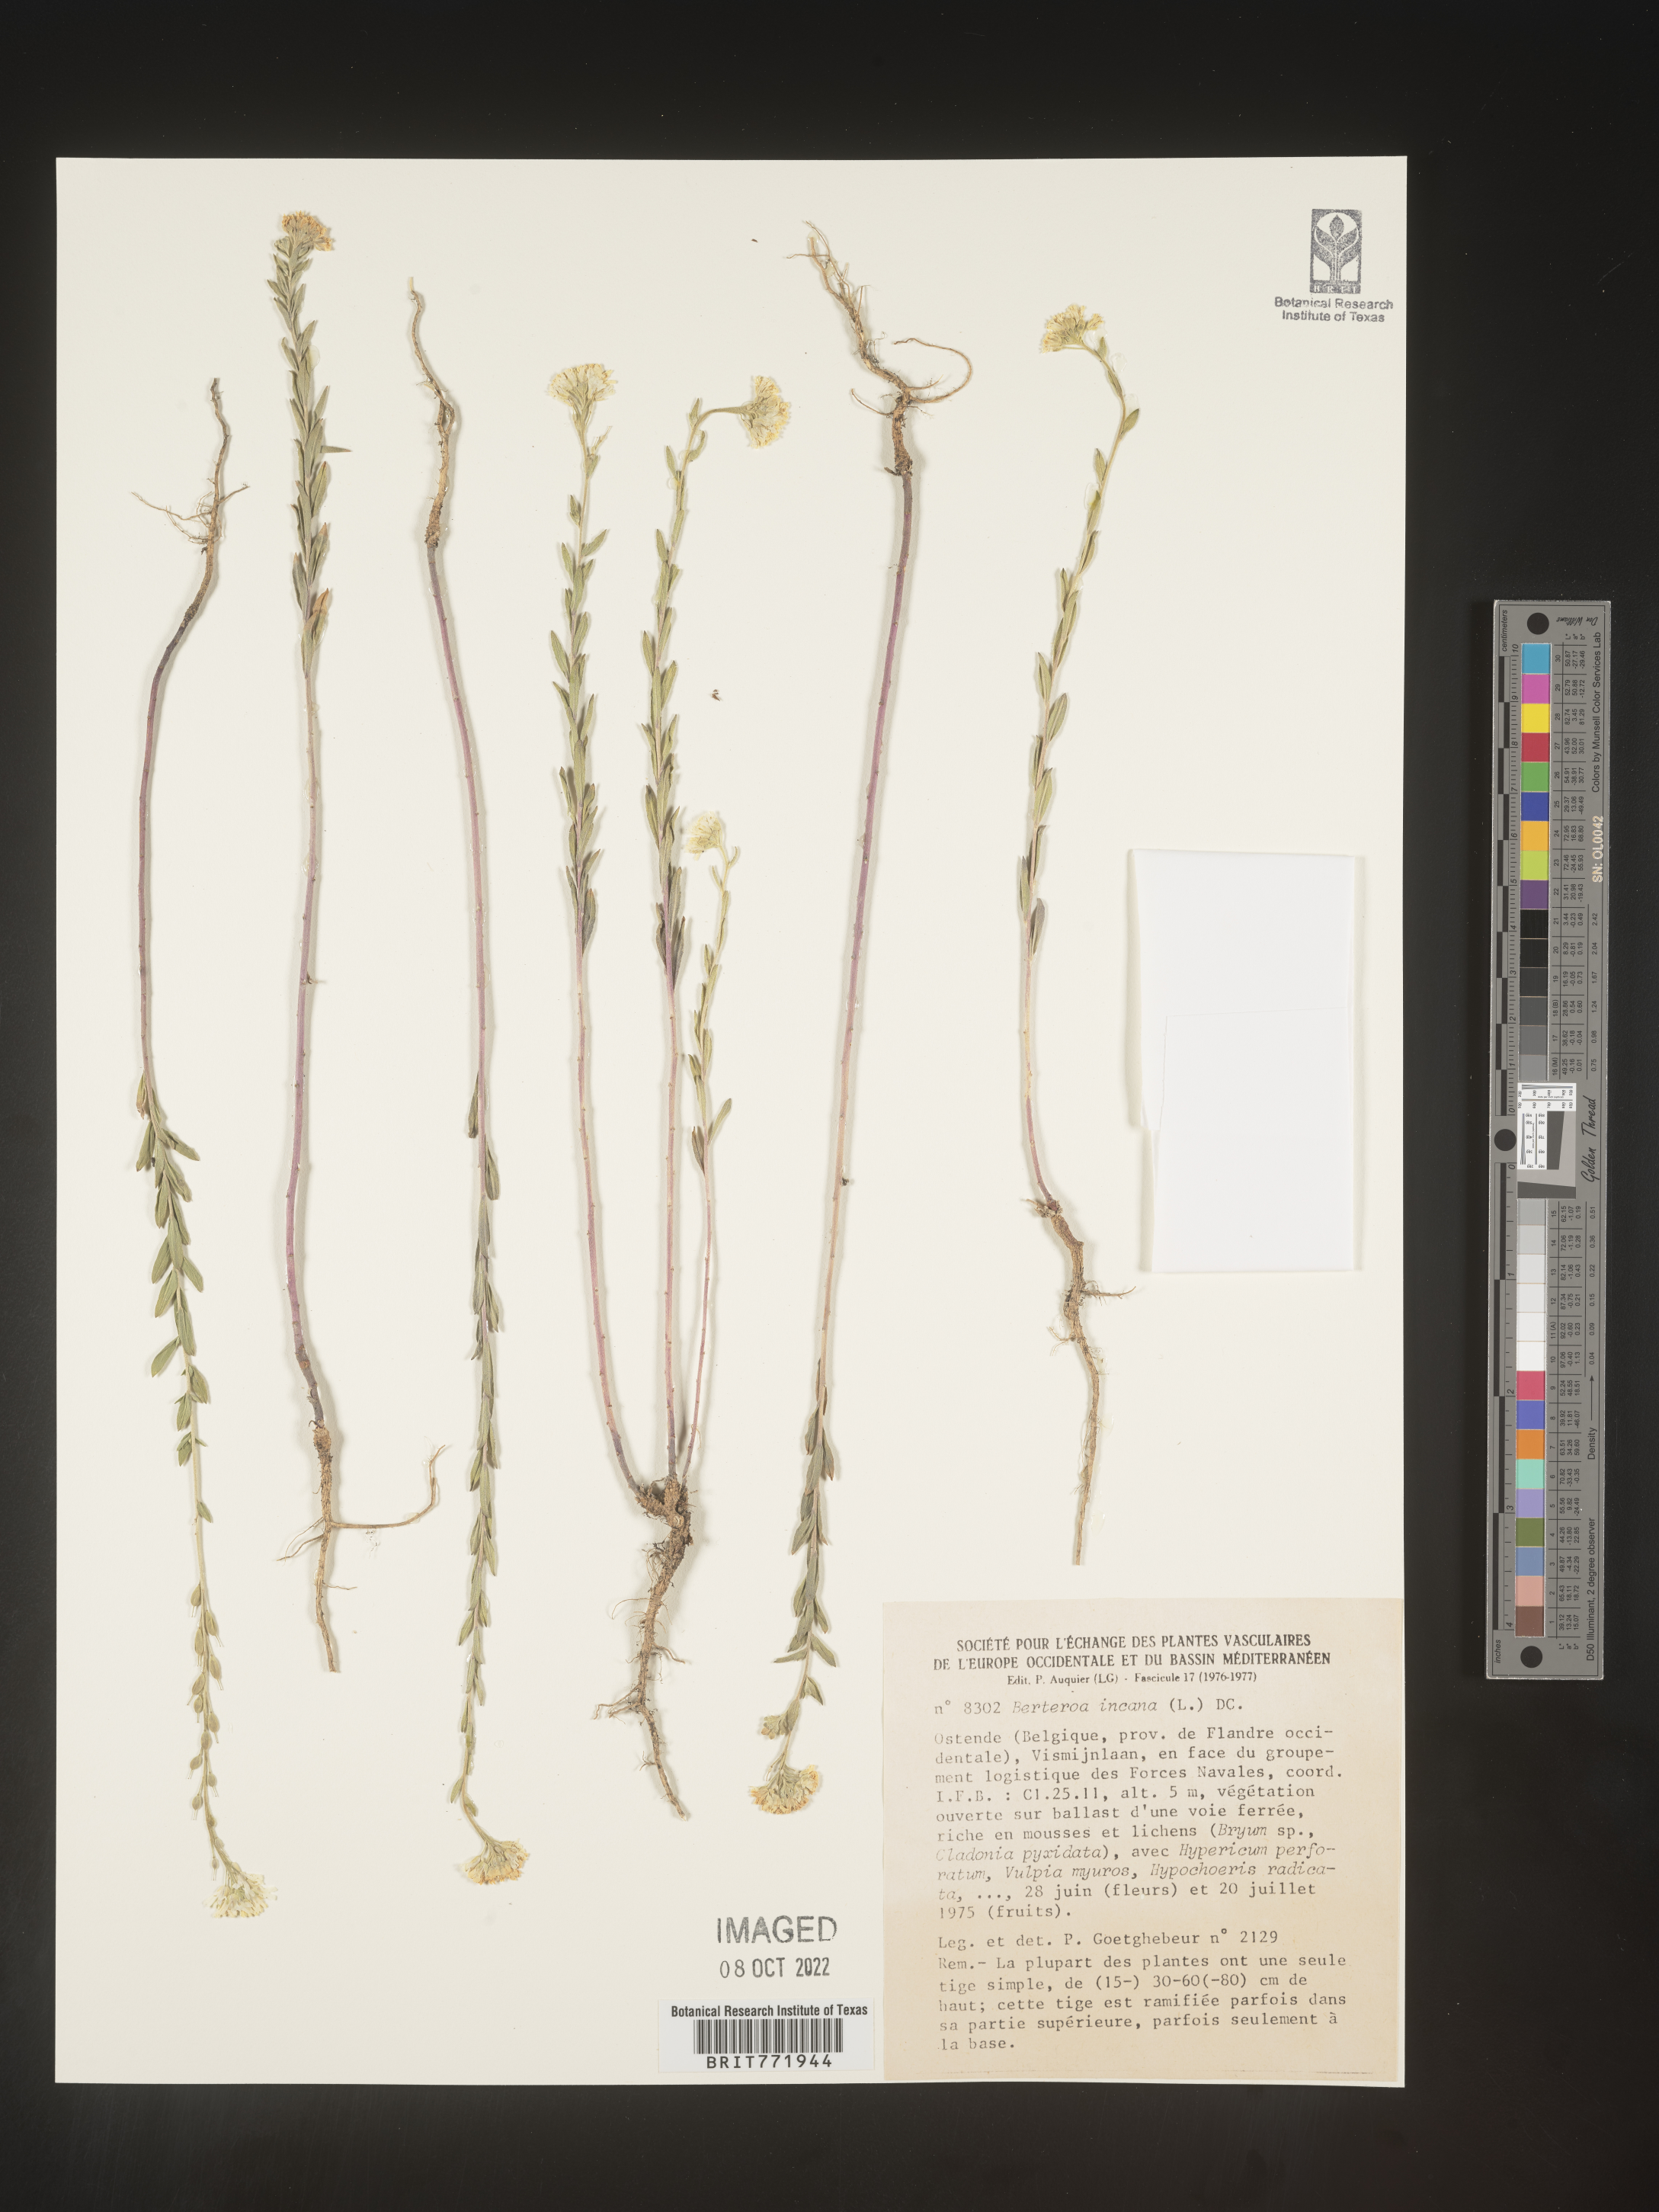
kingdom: Plantae
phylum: Tracheophyta
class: Magnoliopsida
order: Brassicales
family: Brassicaceae
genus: Berteroa
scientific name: Berteroa
